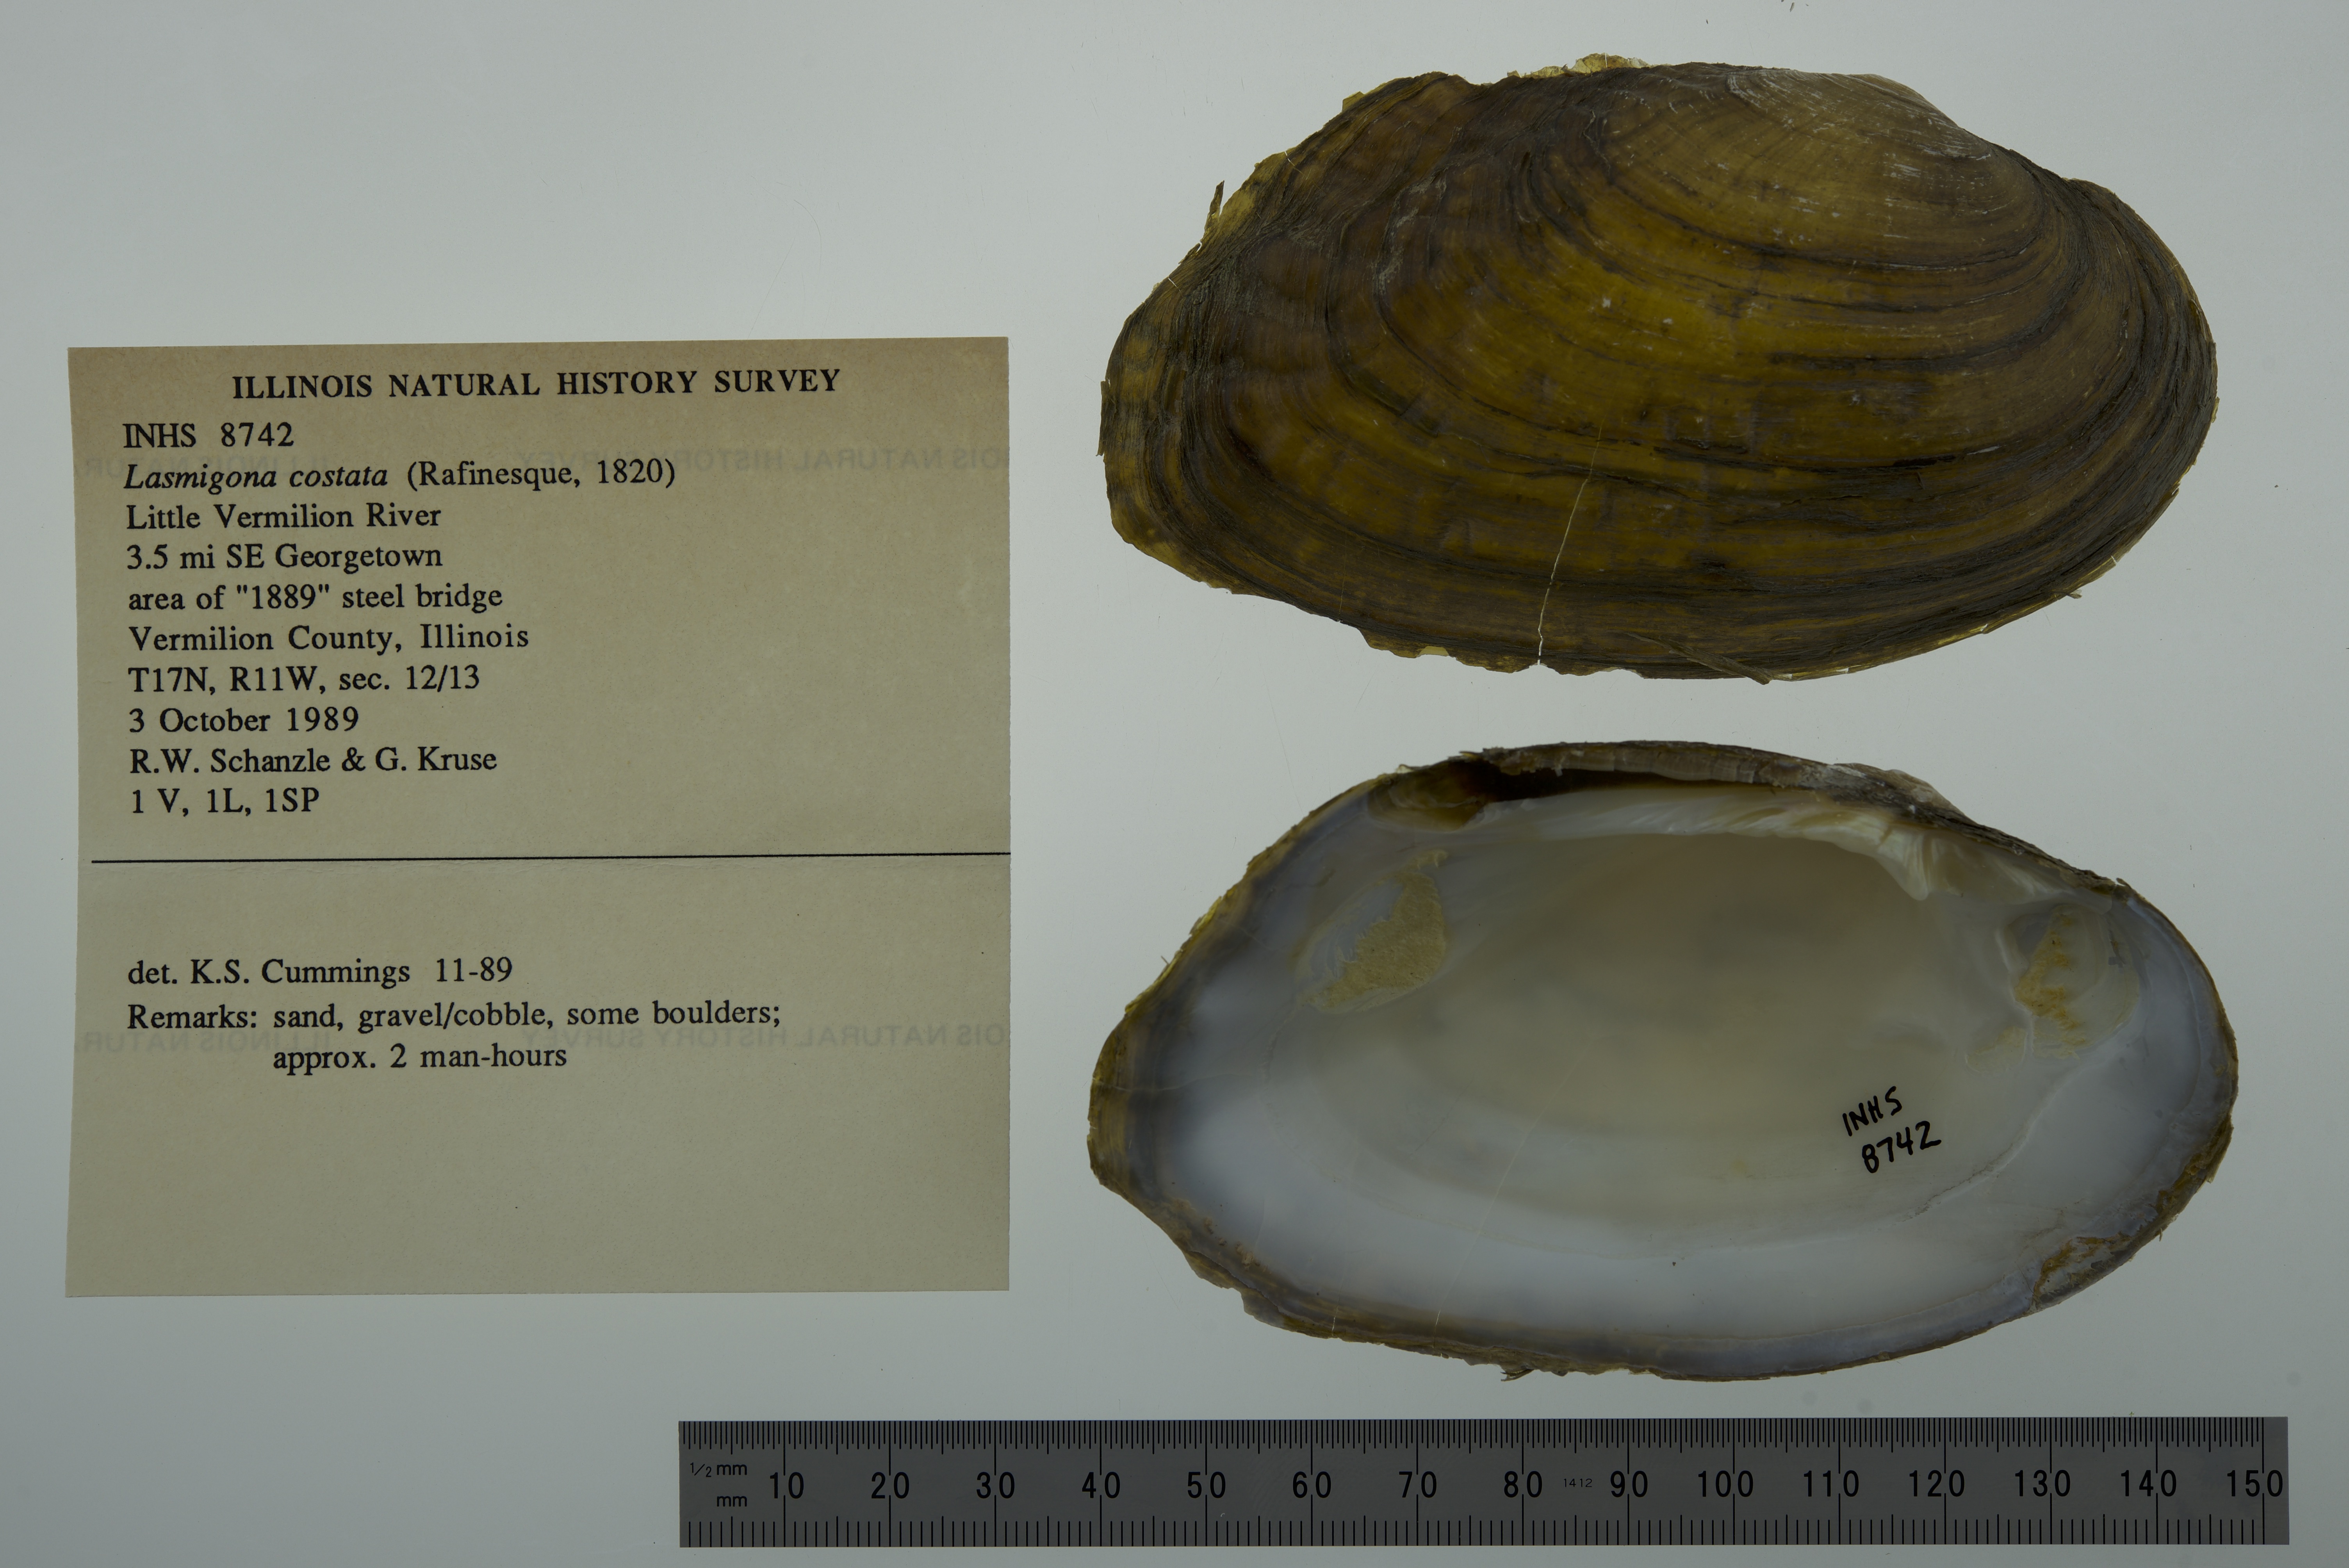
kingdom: Animalia
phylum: Mollusca
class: Bivalvia
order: Unionida
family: Unionidae
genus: Lasmigona
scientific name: Lasmigona costata
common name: Flutedshell
